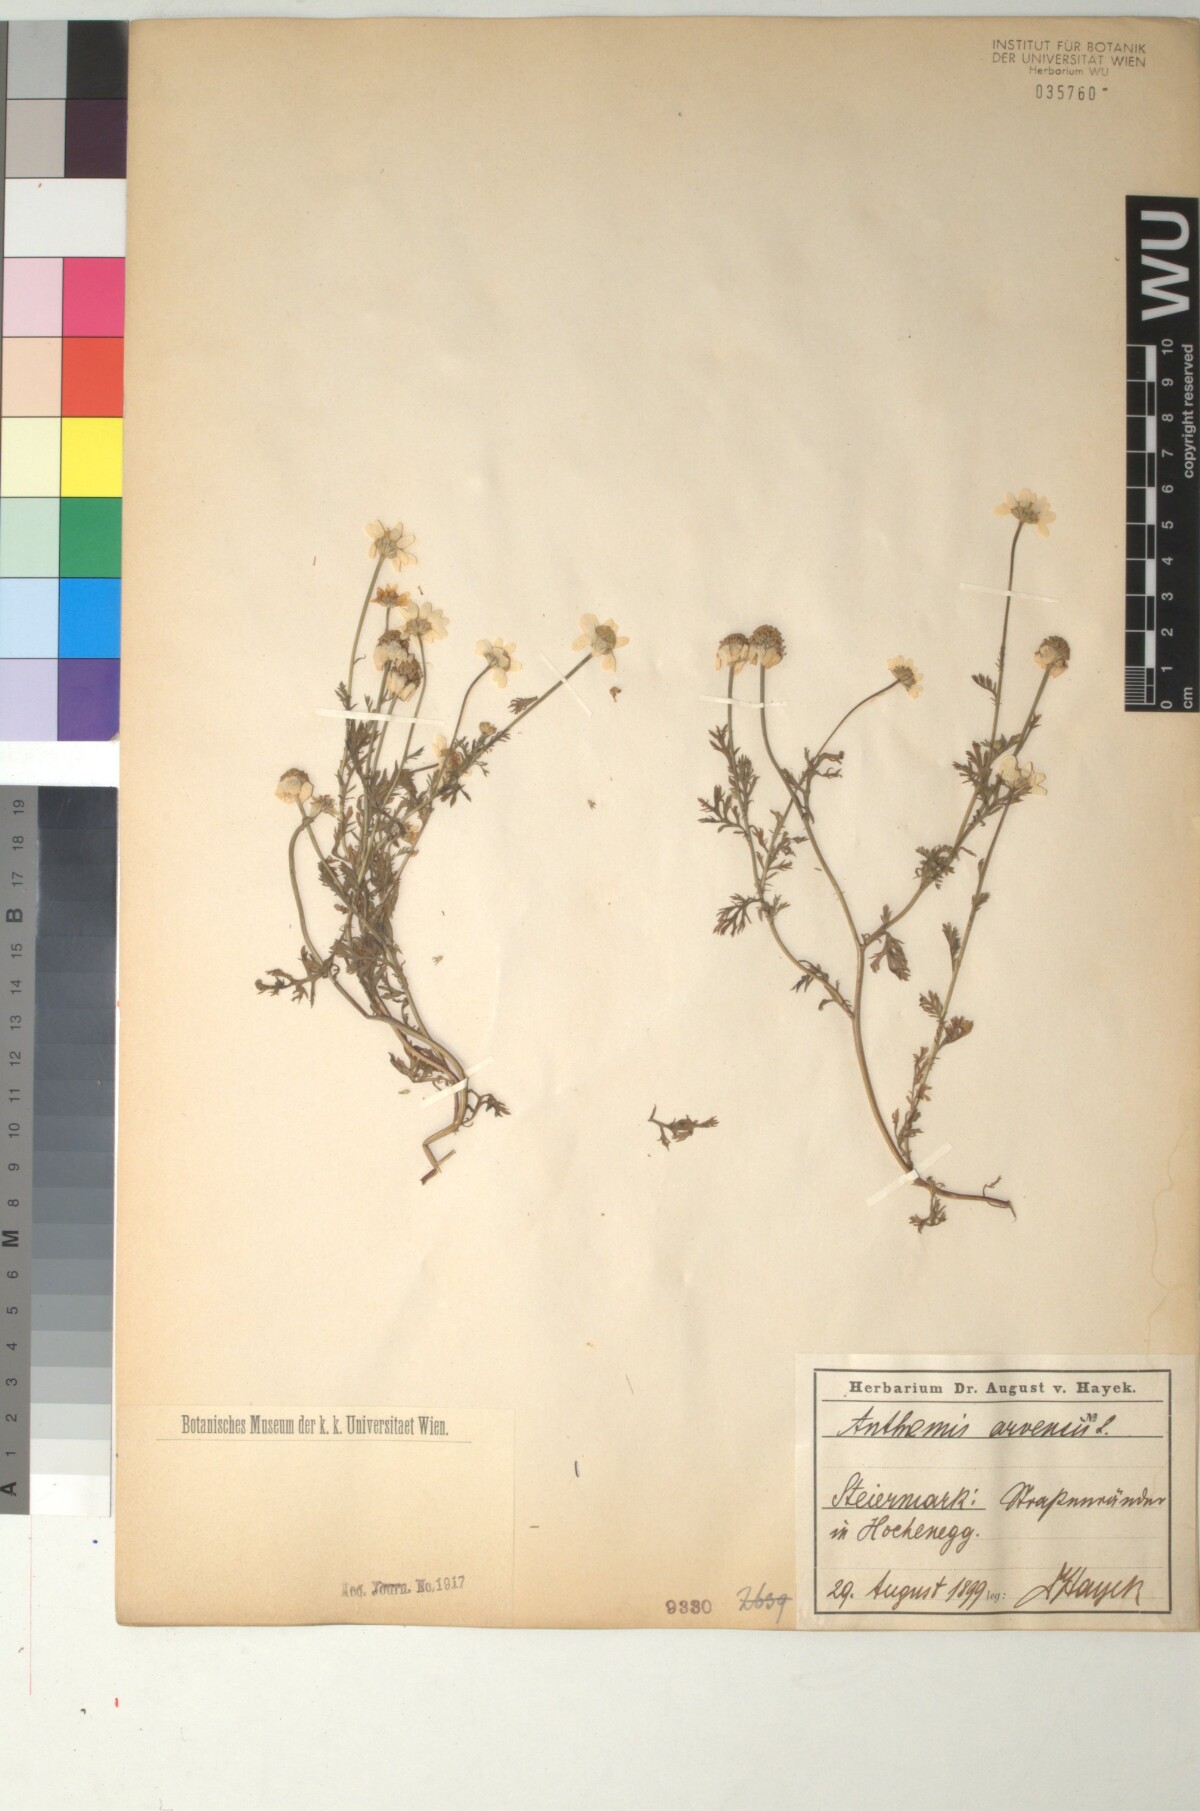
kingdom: Plantae
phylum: Tracheophyta
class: Magnoliopsida
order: Asterales
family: Asteraceae
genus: Anthemis
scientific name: Anthemis arvensis
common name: Corn chamomile
